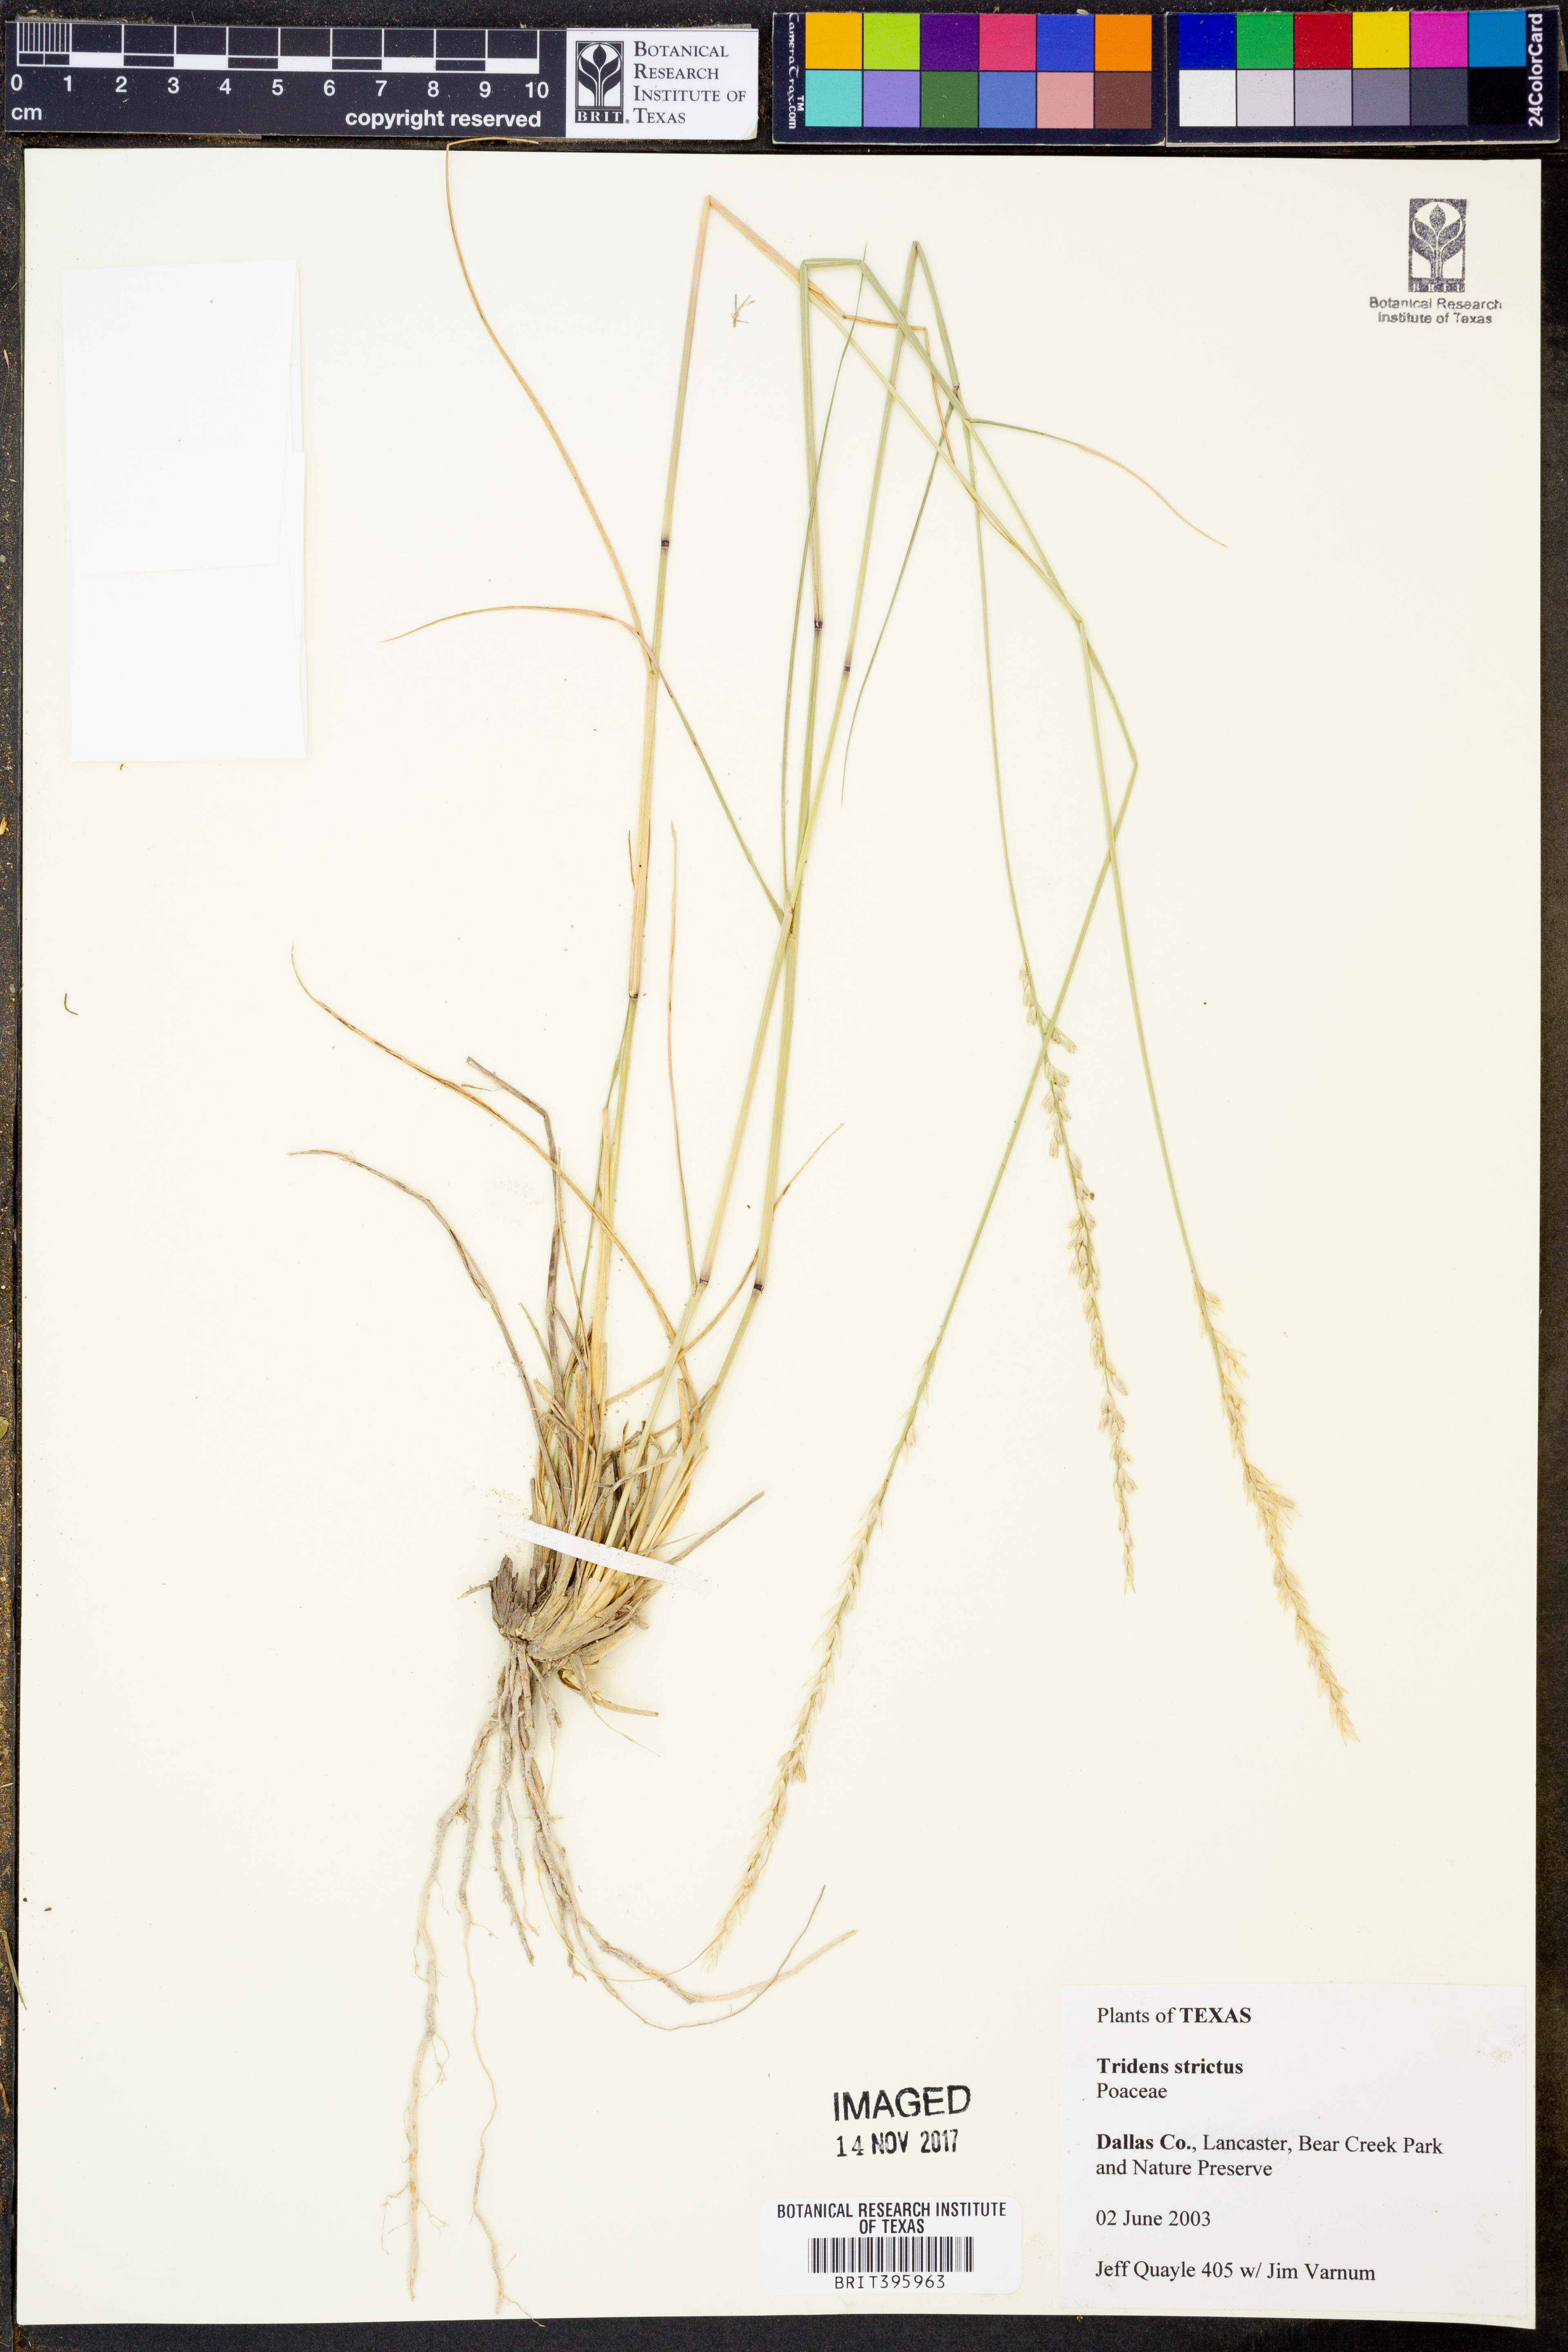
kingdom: Plantae
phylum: Tracheophyta
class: Liliopsida
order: Poales
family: Poaceae
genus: Tridens
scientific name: Tridens strictus
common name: Long-spike tridens
